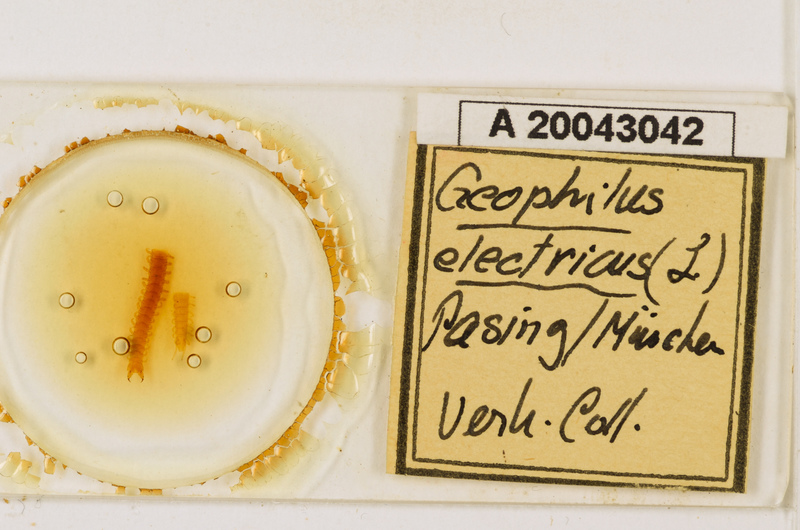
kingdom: Animalia
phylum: Arthropoda
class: Chilopoda
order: Geophilomorpha
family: Geophilidae
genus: Geophilus
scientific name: Geophilus electricus
